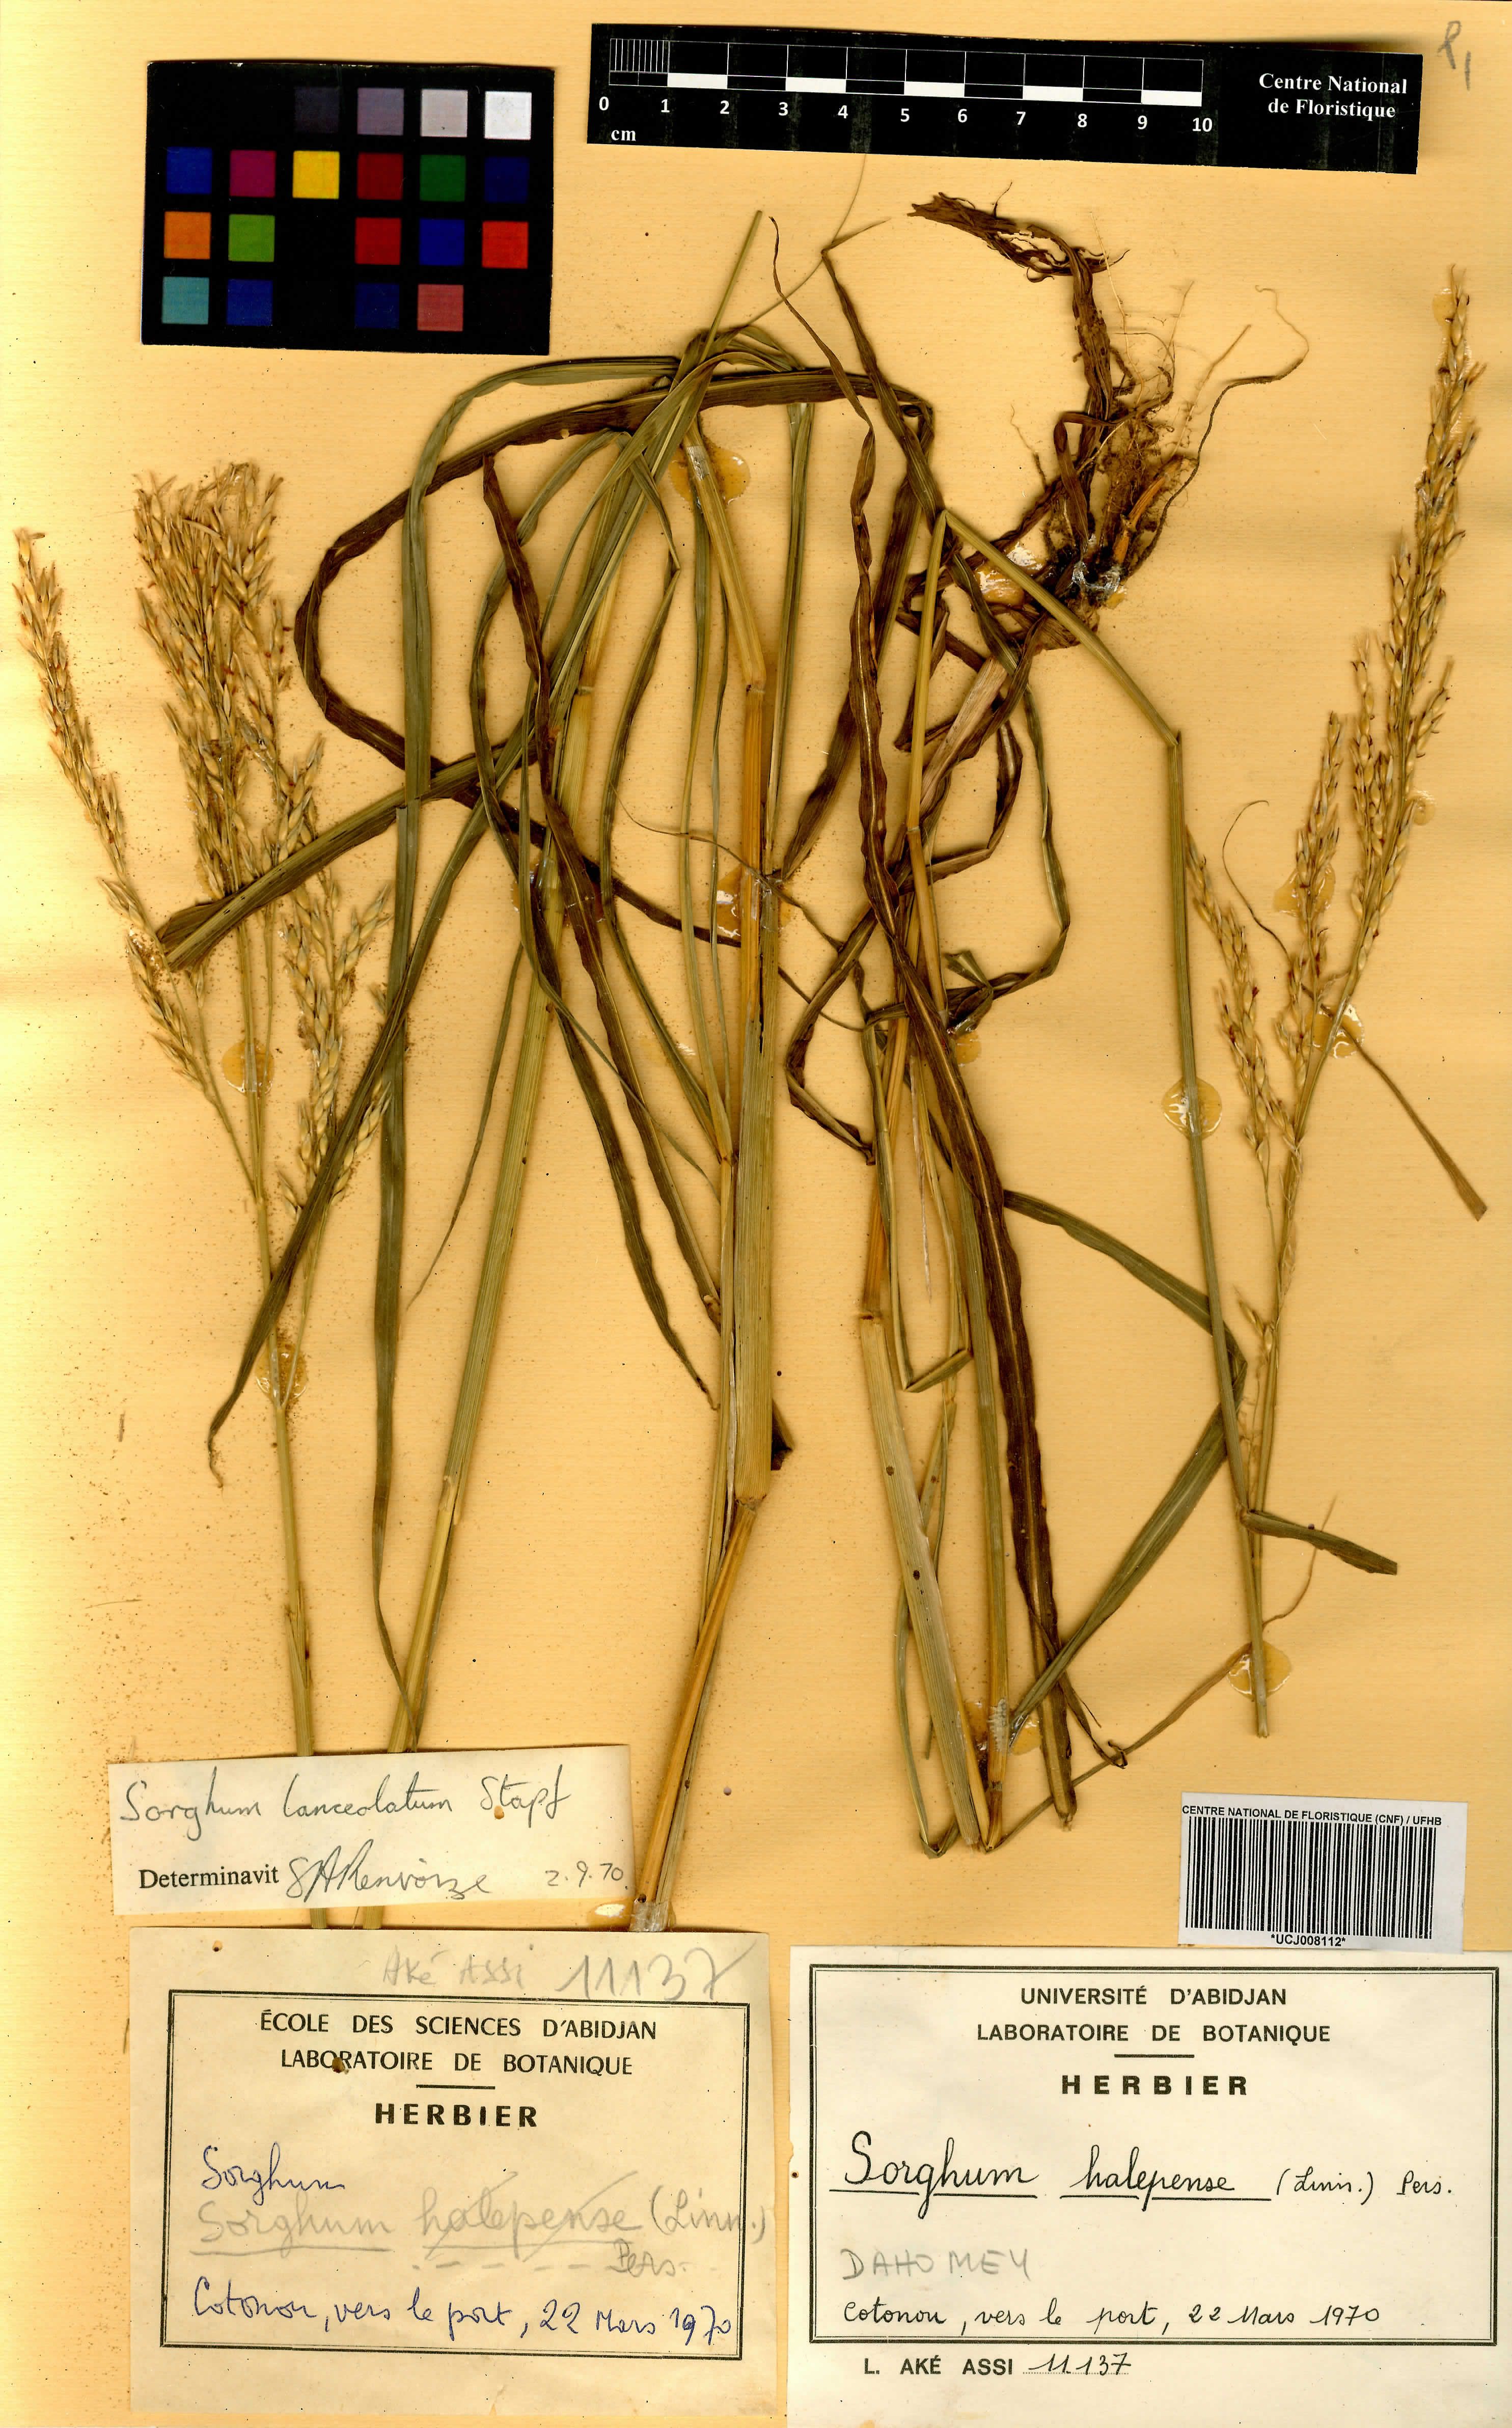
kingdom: Plantae
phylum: Tracheophyta
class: Liliopsida
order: Poales
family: Poaceae
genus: Sorghum
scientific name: Sorghum halepense
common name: Johnson-grass
